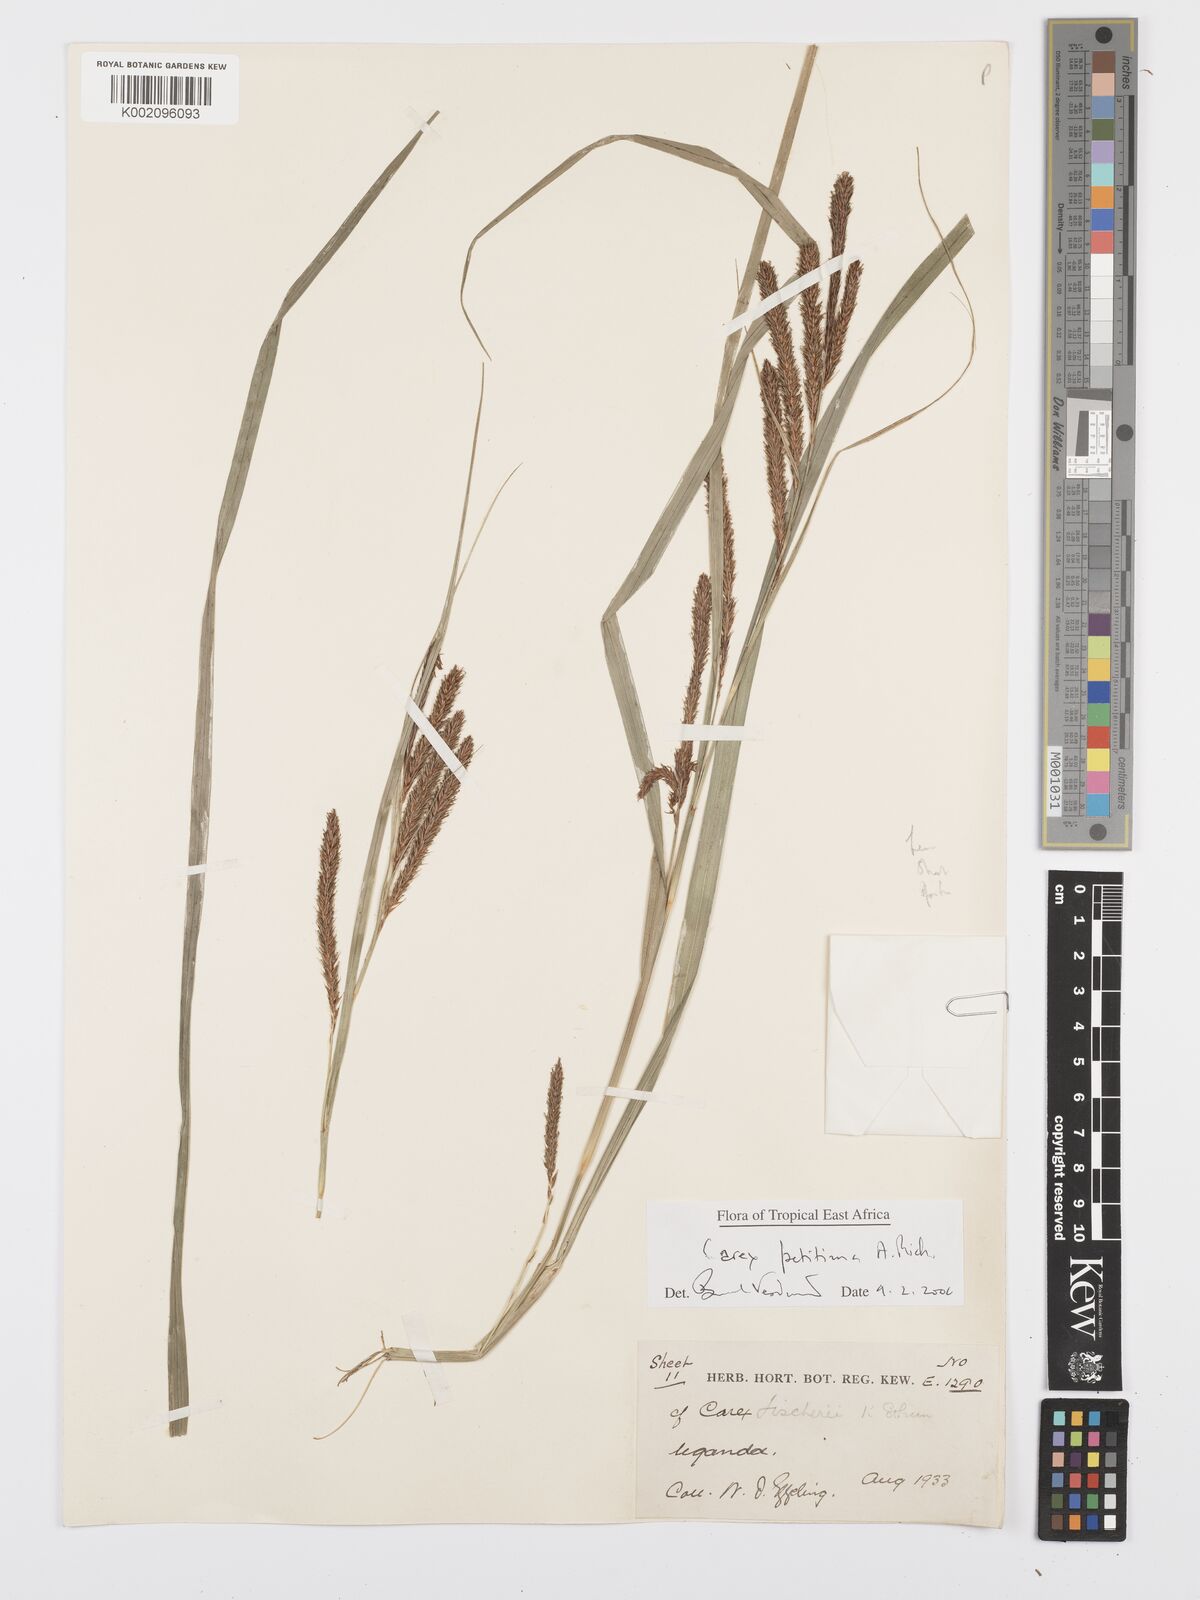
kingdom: Plantae
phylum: Tracheophyta
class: Liliopsida
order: Poales
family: Cyperaceae
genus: Carex
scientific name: Carex fischeri
